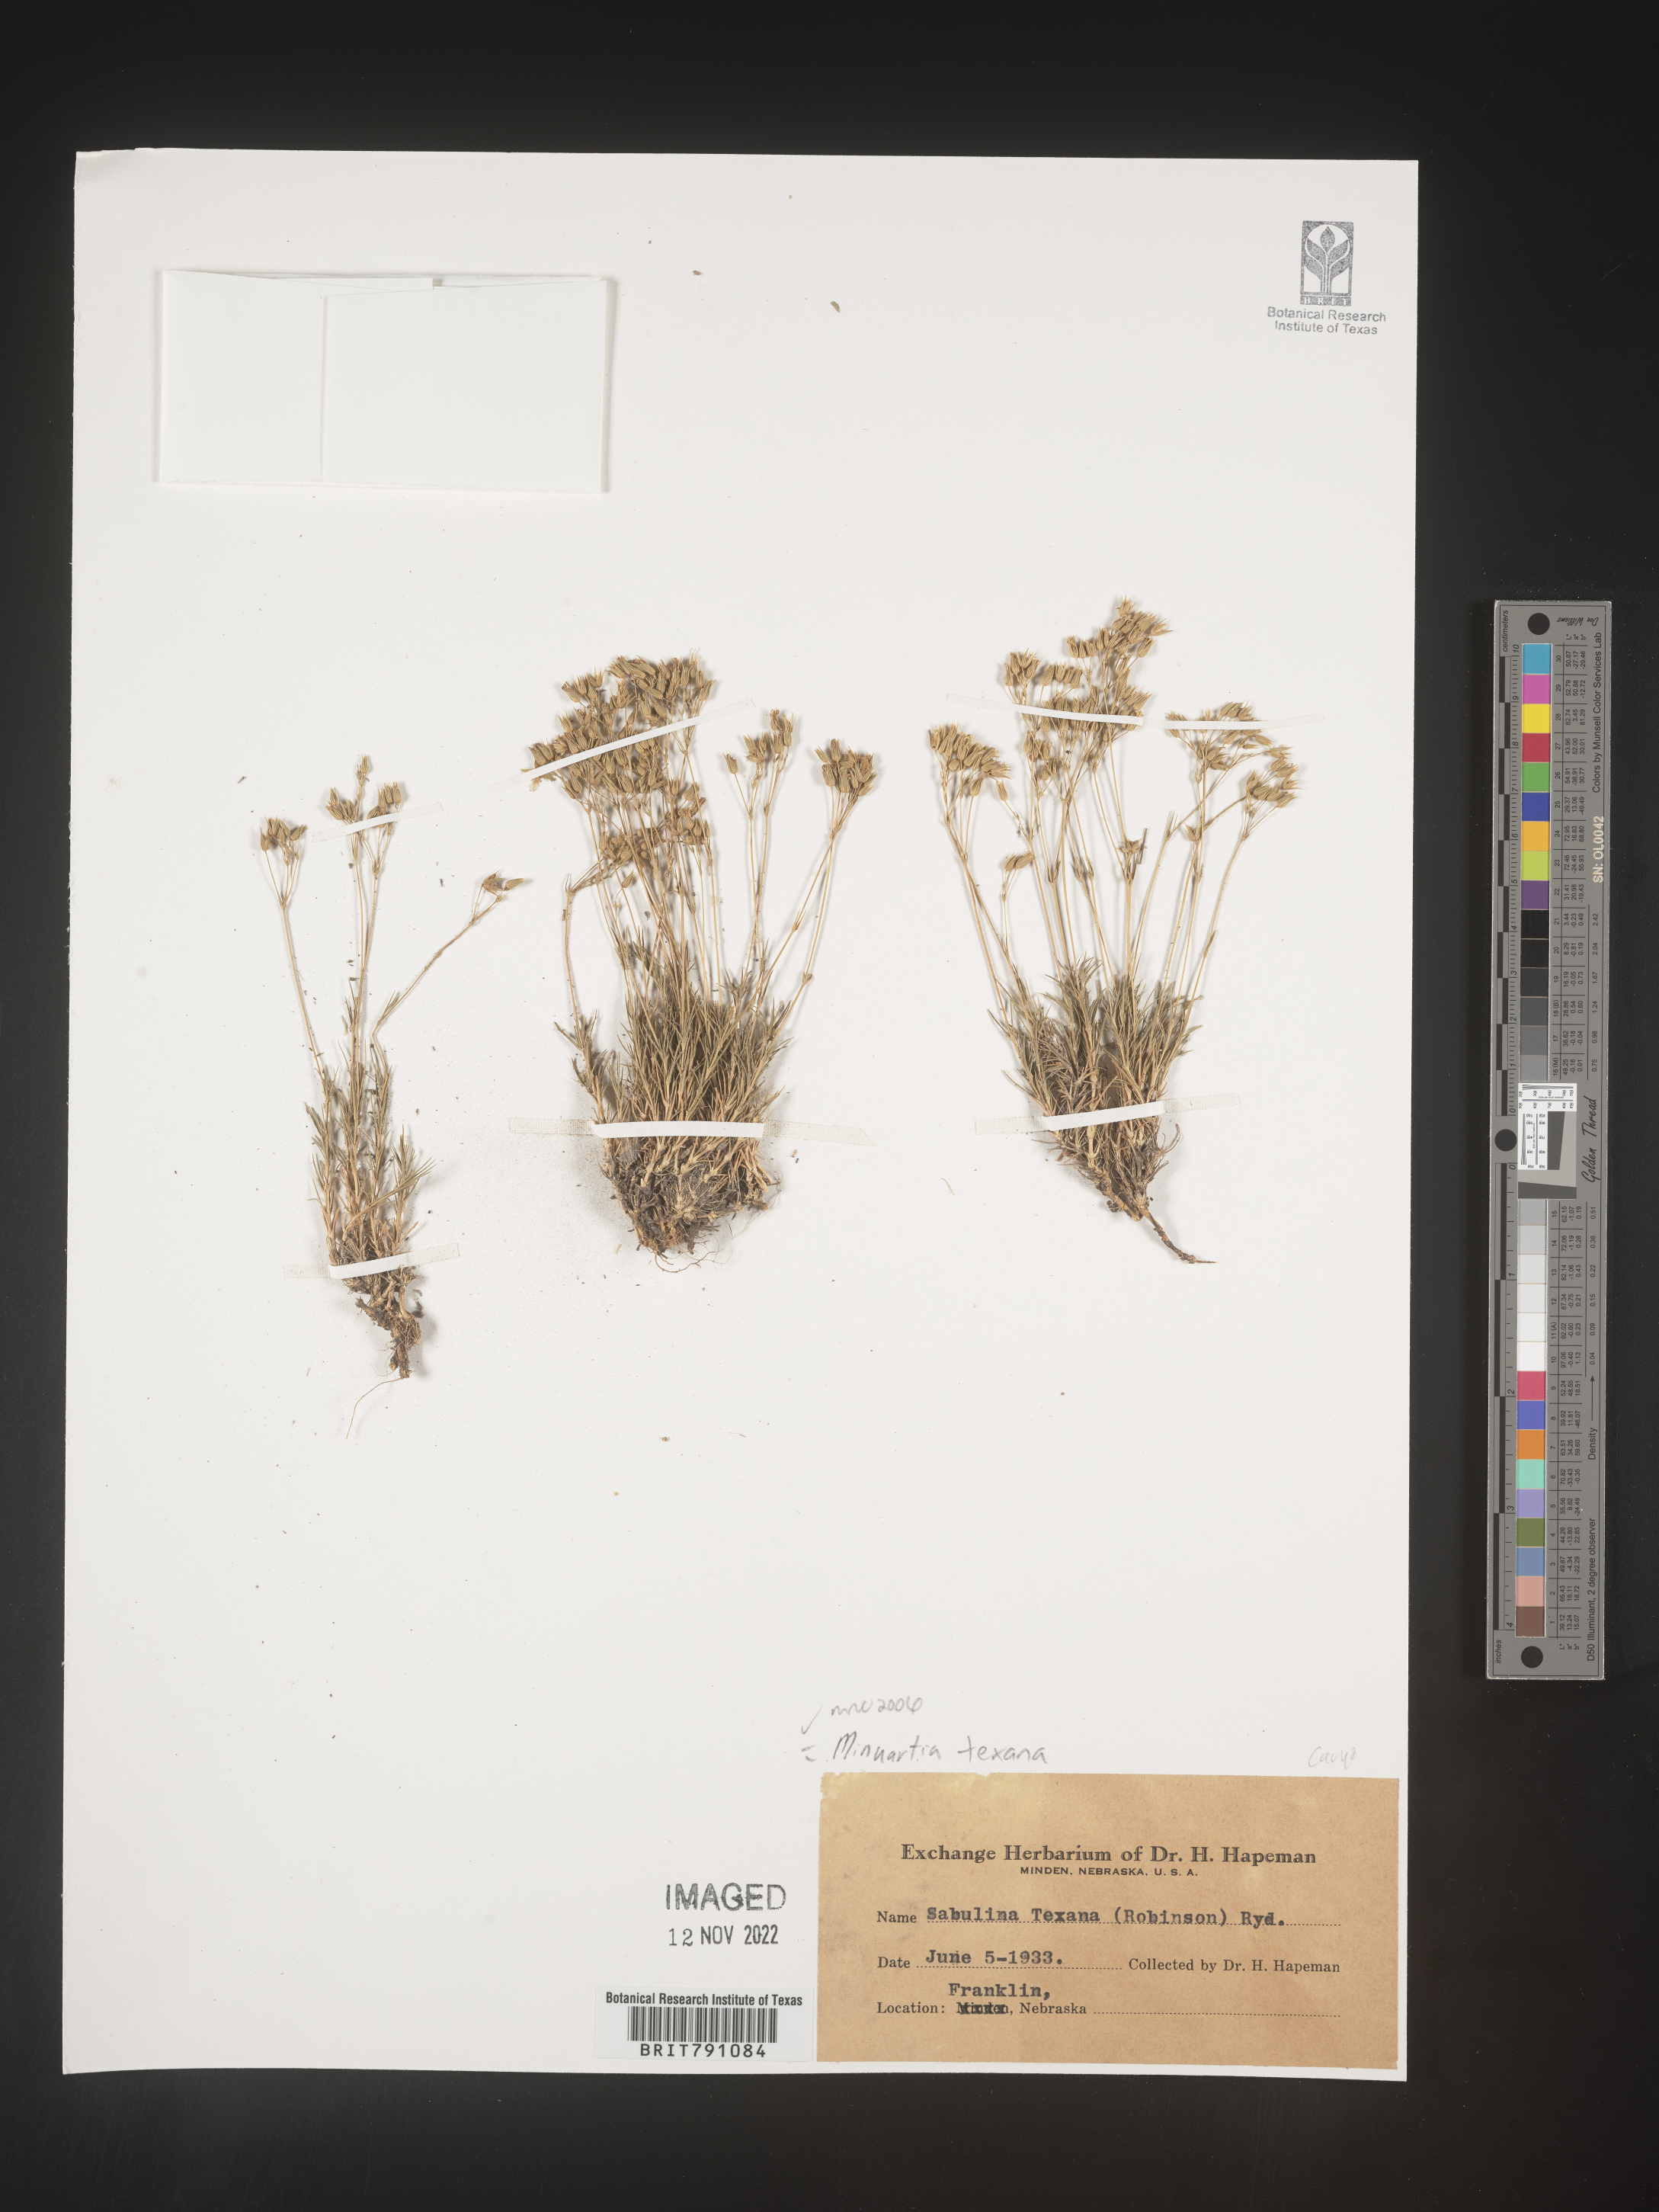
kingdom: Plantae
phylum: Tracheophyta
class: Magnoliopsida
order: Caryophyllales
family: Caryophyllaceae
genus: Minuartia
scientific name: Minuartia
